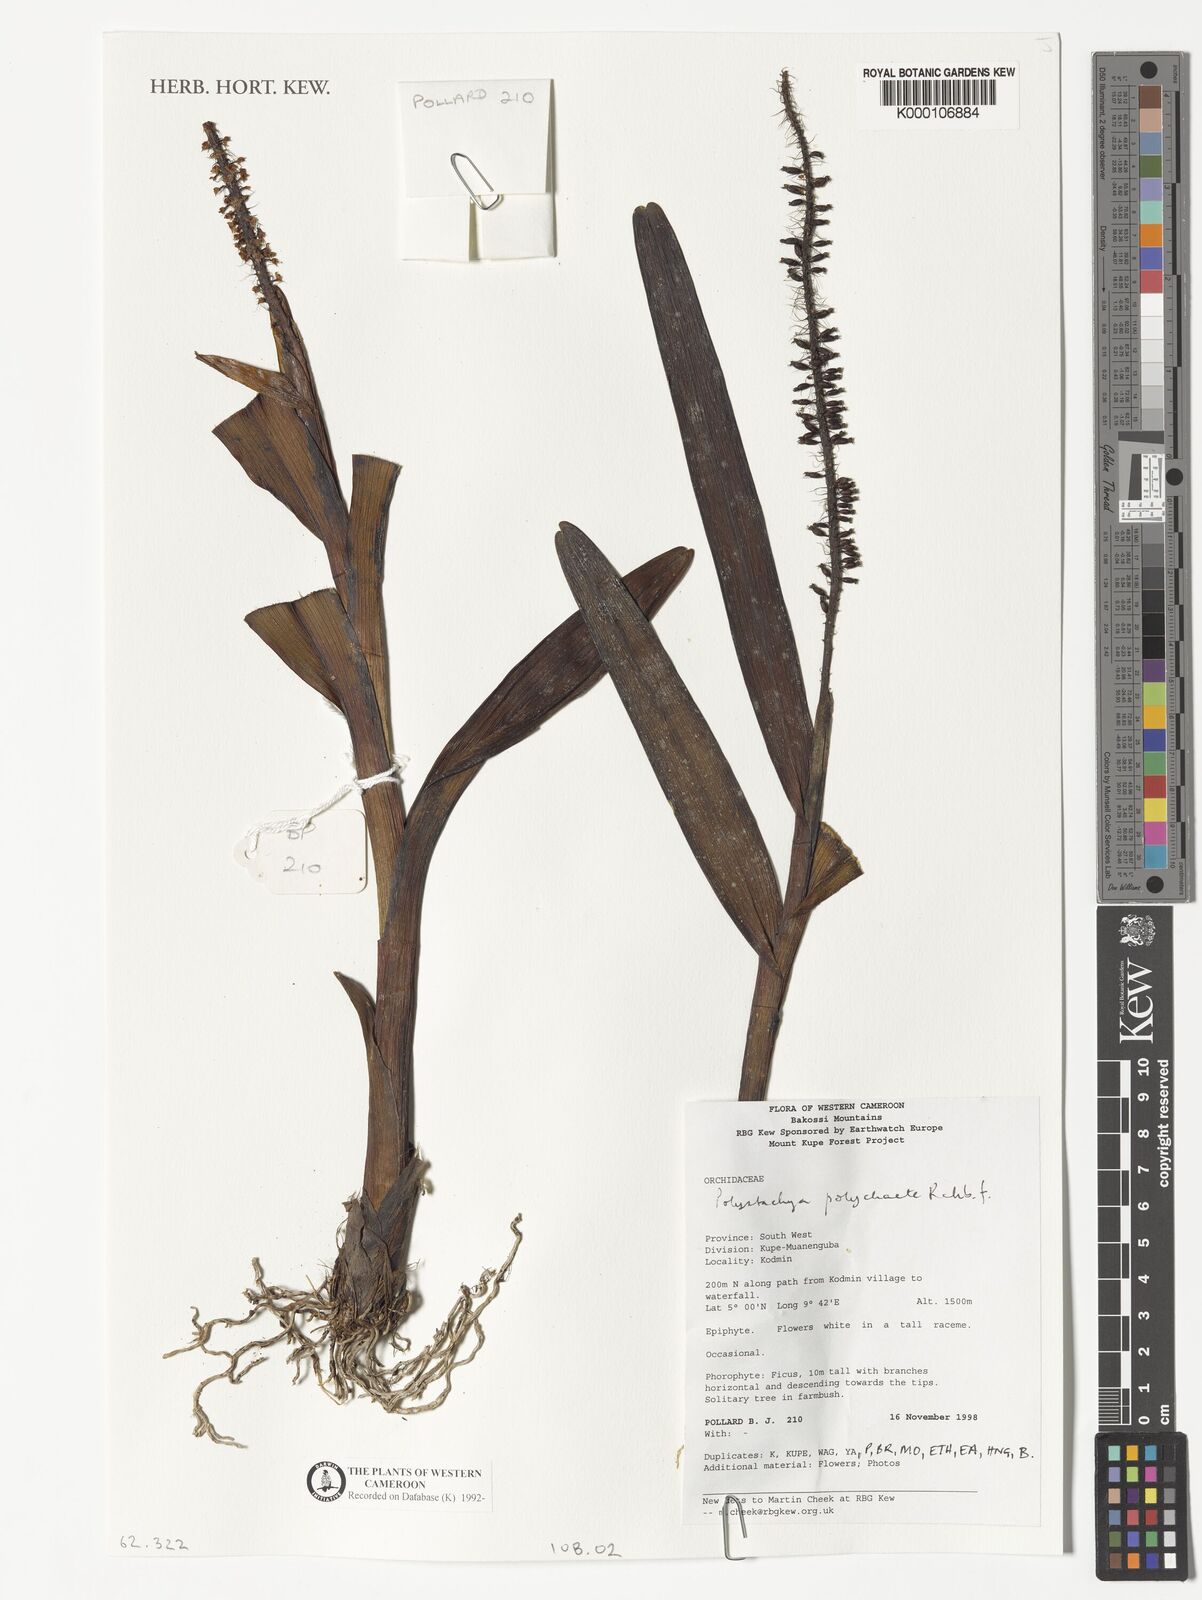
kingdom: Plantae
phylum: Tracheophyta
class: Liliopsida
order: Asparagales
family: Orchidaceae
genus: Polystachya
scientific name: Polystachya polychaete
